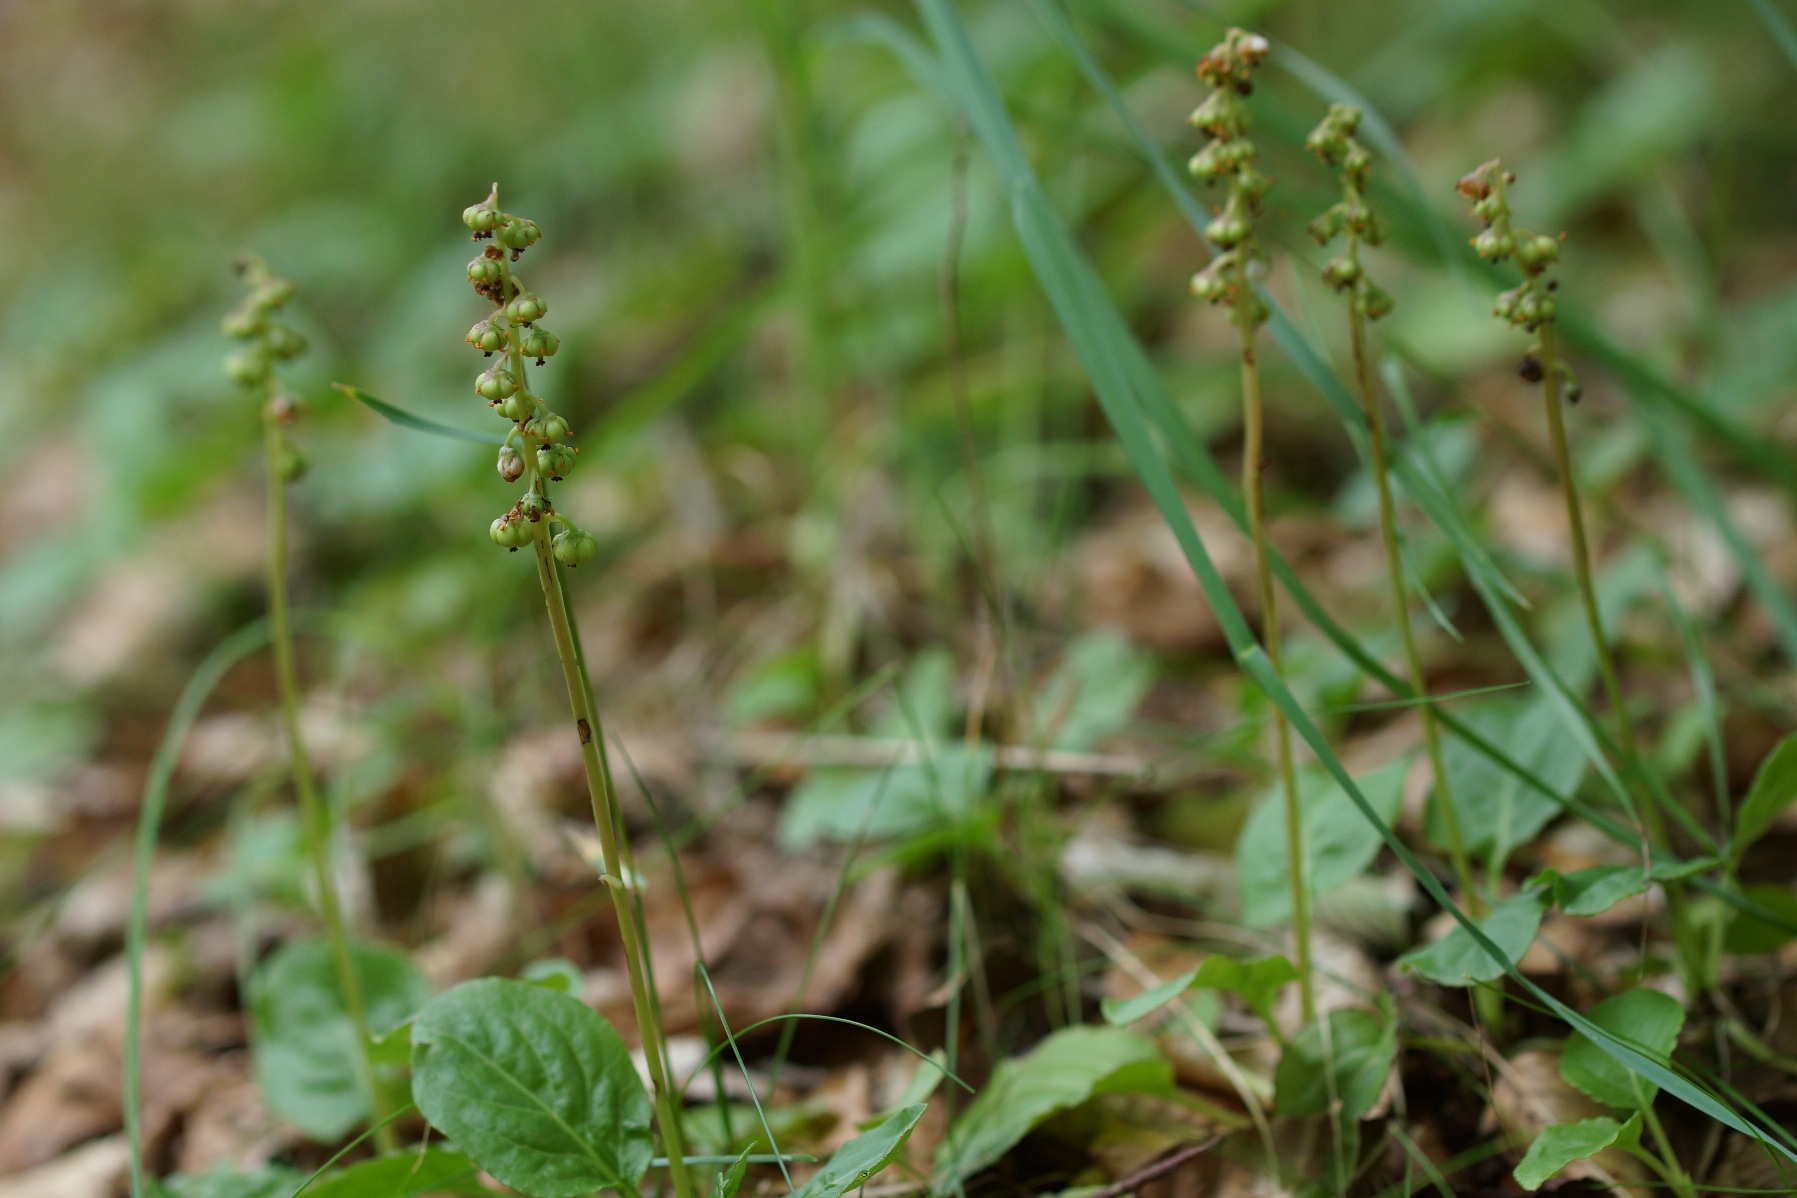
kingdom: Plantae
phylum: Tracheophyta
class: Magnoliopsida
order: Ericales
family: Ericaceae
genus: Pyrola
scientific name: Pyrola minor
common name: Liden vintergrøn
